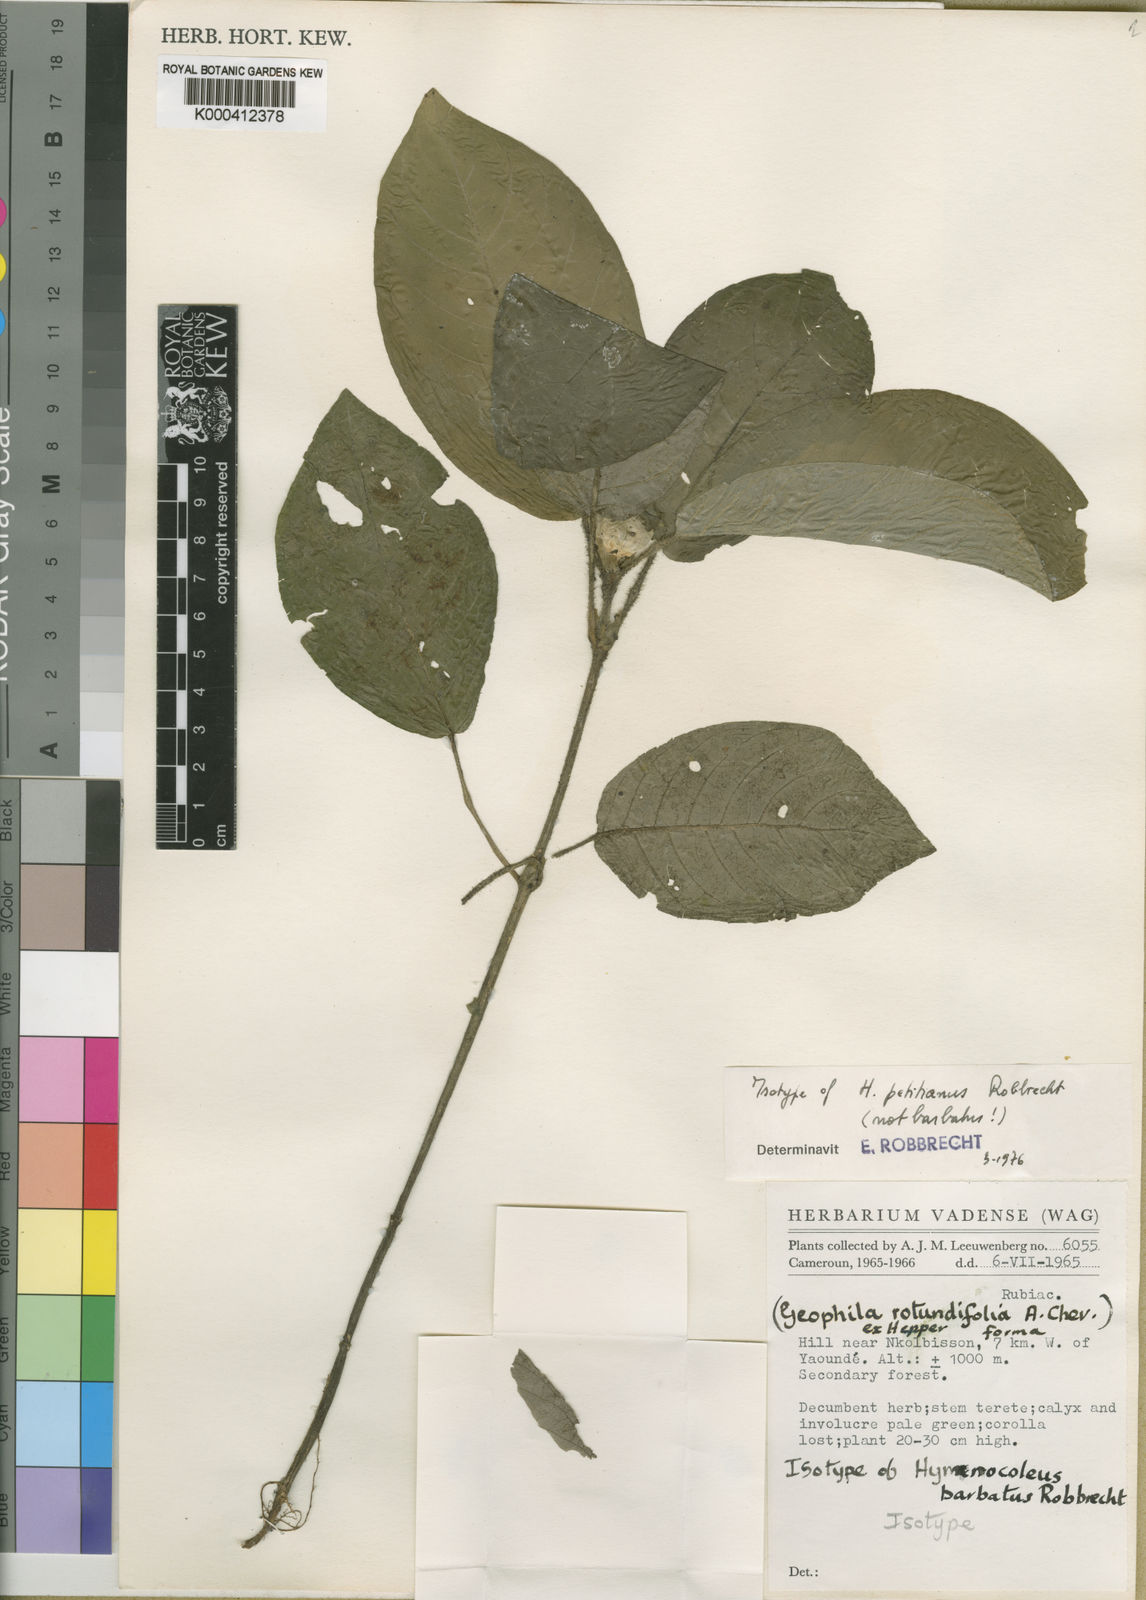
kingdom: Plantae
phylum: Tracheophyta
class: Magnoliopsida
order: Gentianales
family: Rubiaceae
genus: Hymenocoleus
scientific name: Hymenocoleus subipecacuanha
